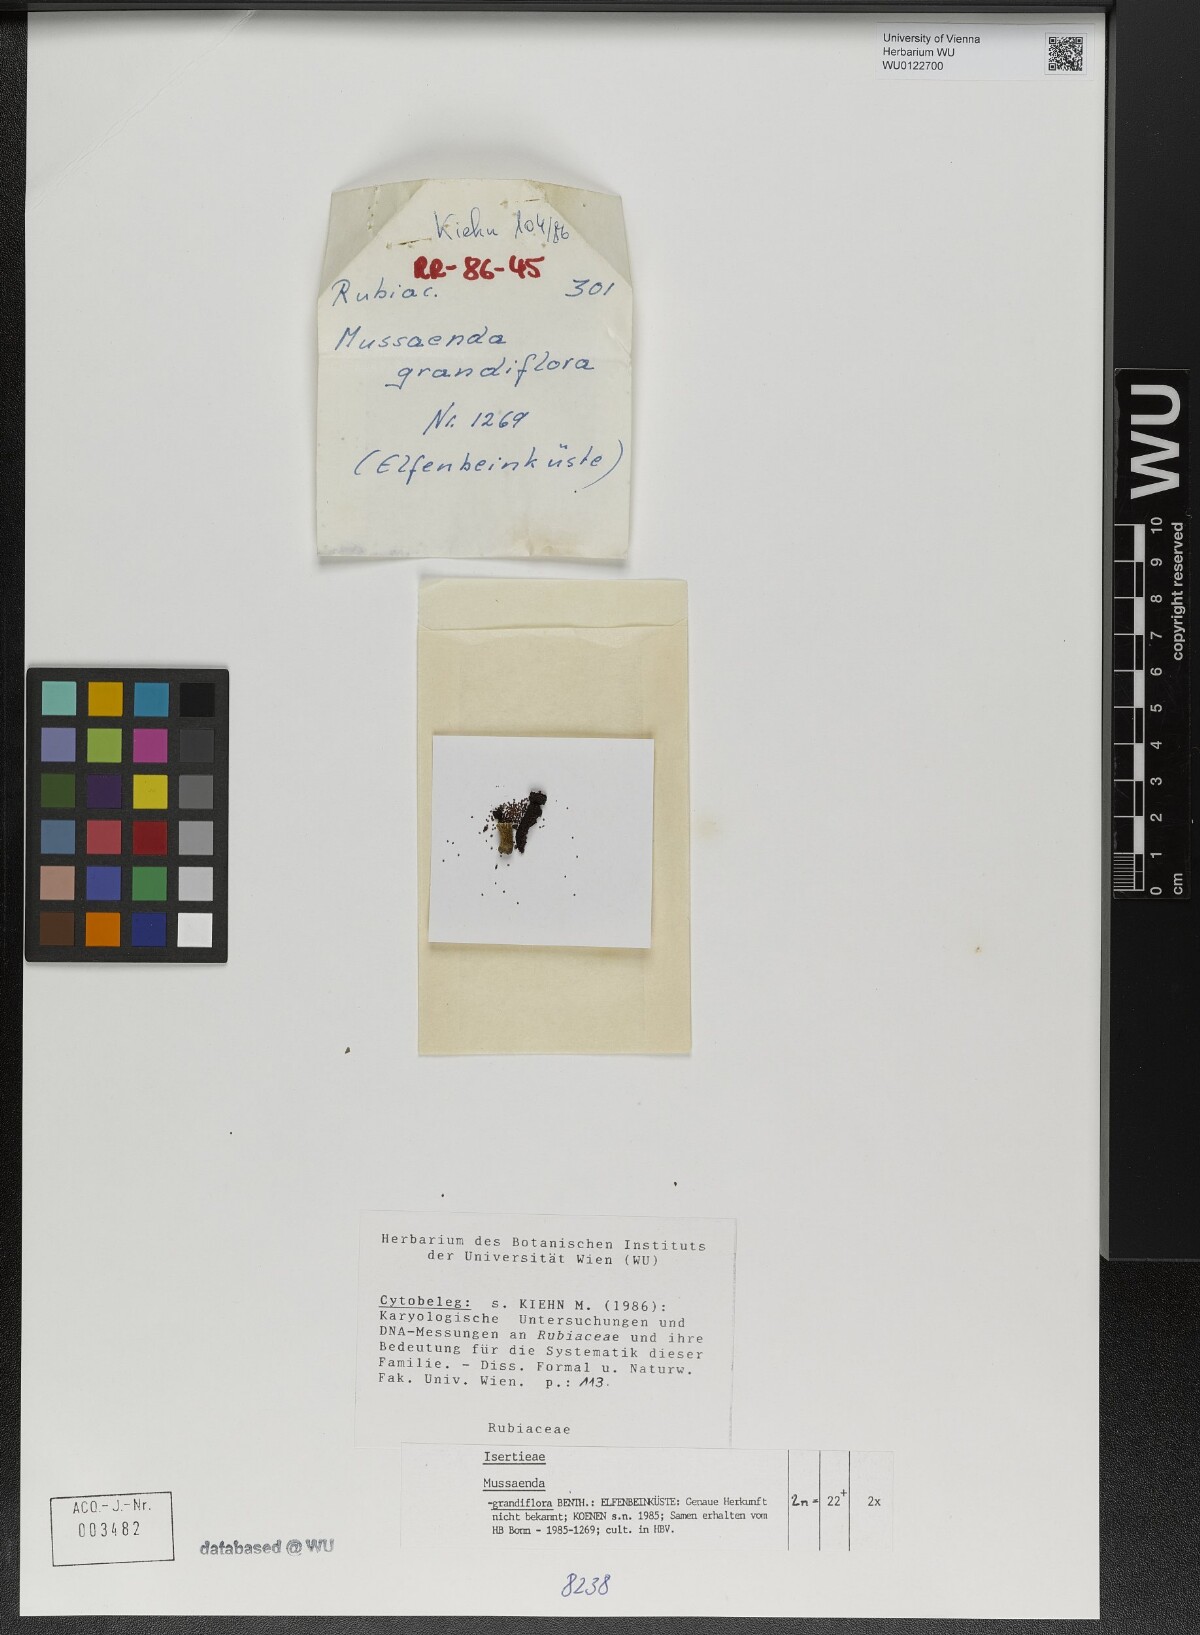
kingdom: Plantae
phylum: Tracheophyta
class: Magnoliopsida
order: Gentianales
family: Rubiaceae
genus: Mussaenda
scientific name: Mussaenda grandiflora
